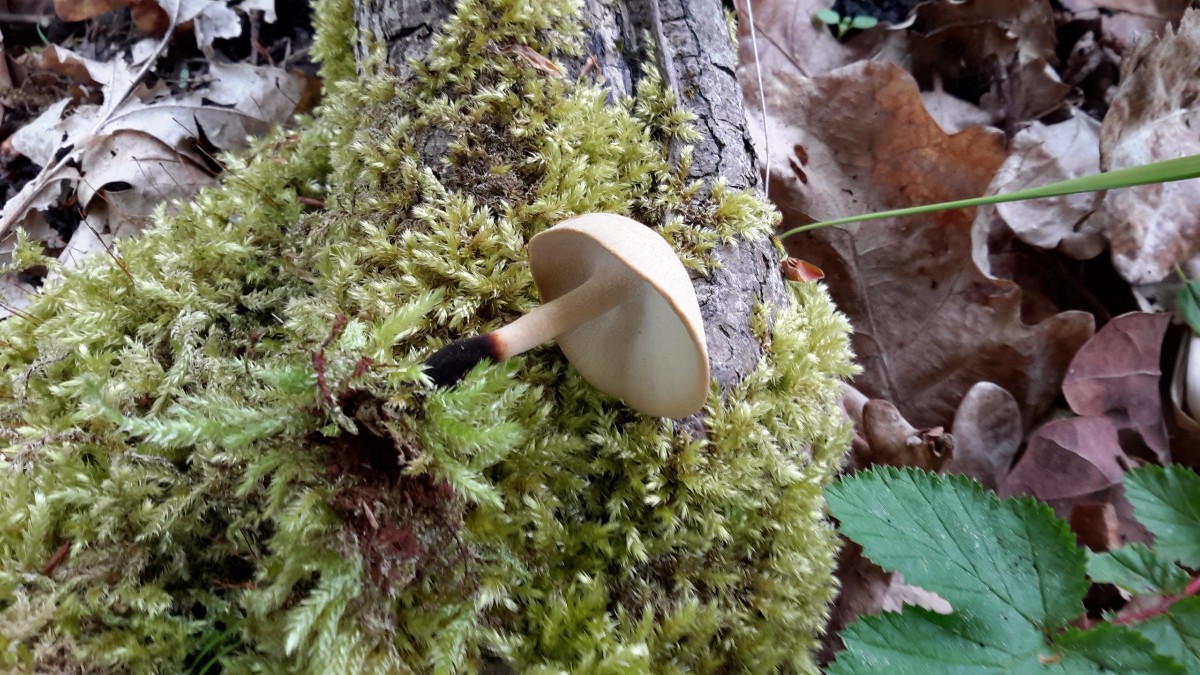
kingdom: Fungi
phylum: Basidiomycota
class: Agaricomycetes
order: Polyporales
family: Polyporaceae
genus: Cerioporus
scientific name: Cerioporus varius
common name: foranderlig stilkporesvamp
